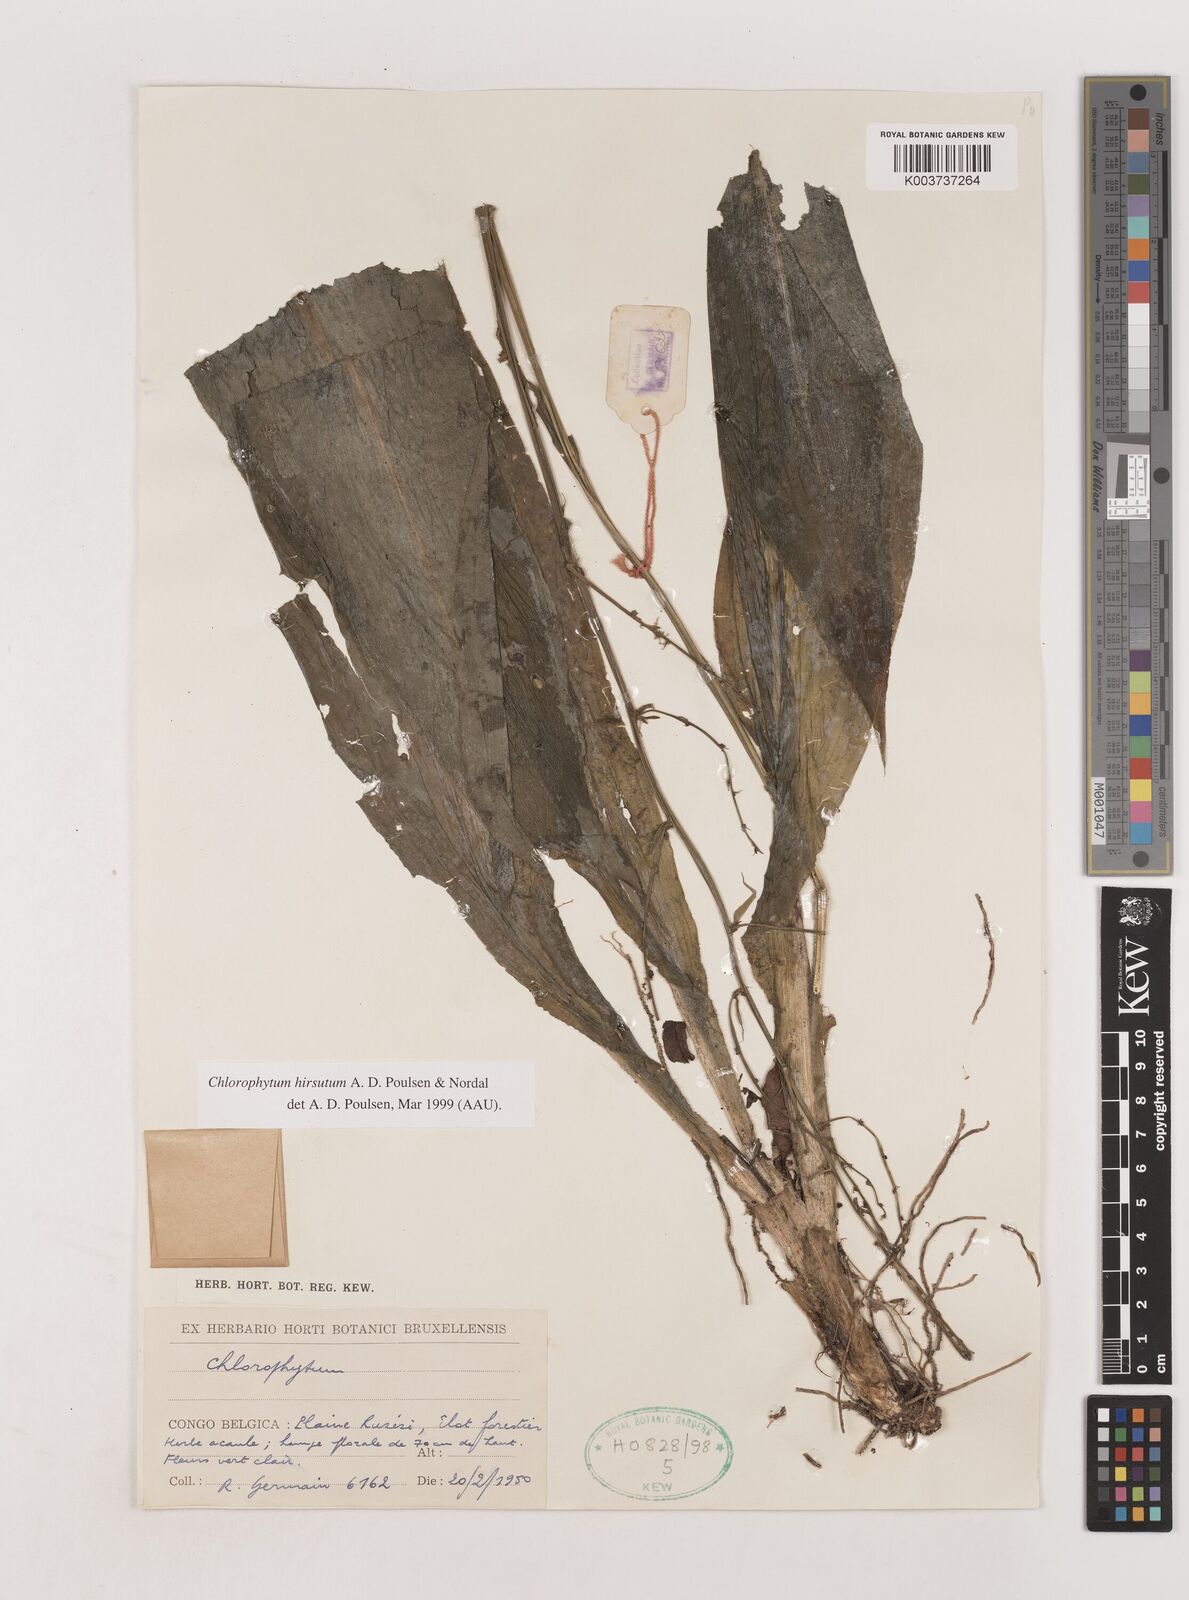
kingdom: Plantae
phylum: Tracheophyta
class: Liliopsida
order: Asparagales
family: Asparagaceae
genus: Chlorophytum
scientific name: Chlorophytum hirsutum
